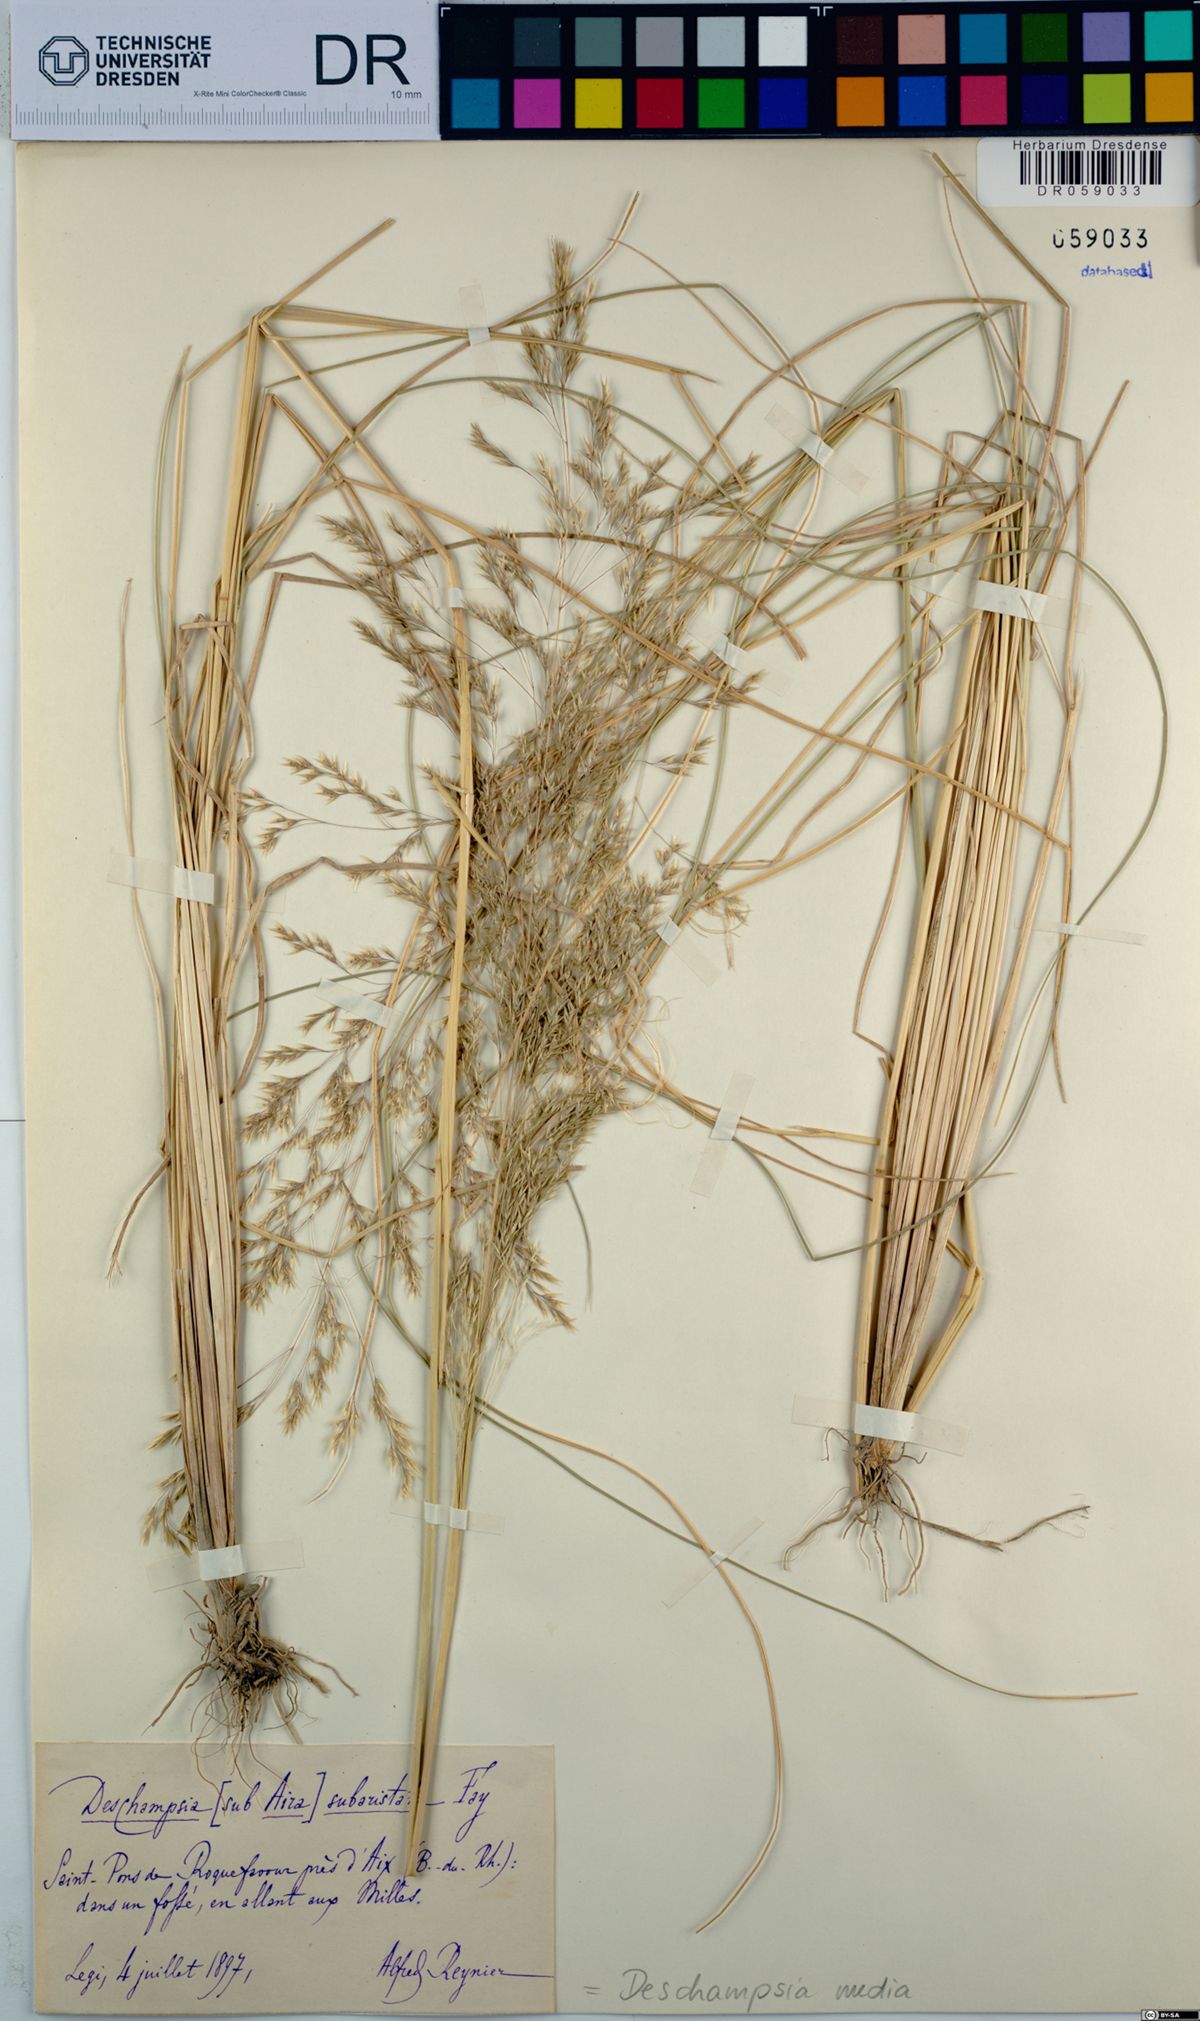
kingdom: Plantae
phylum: Tracheophyta
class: Liliopsida
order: Poales
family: Poaceae
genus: Deschampsia
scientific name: Deschampsia media
